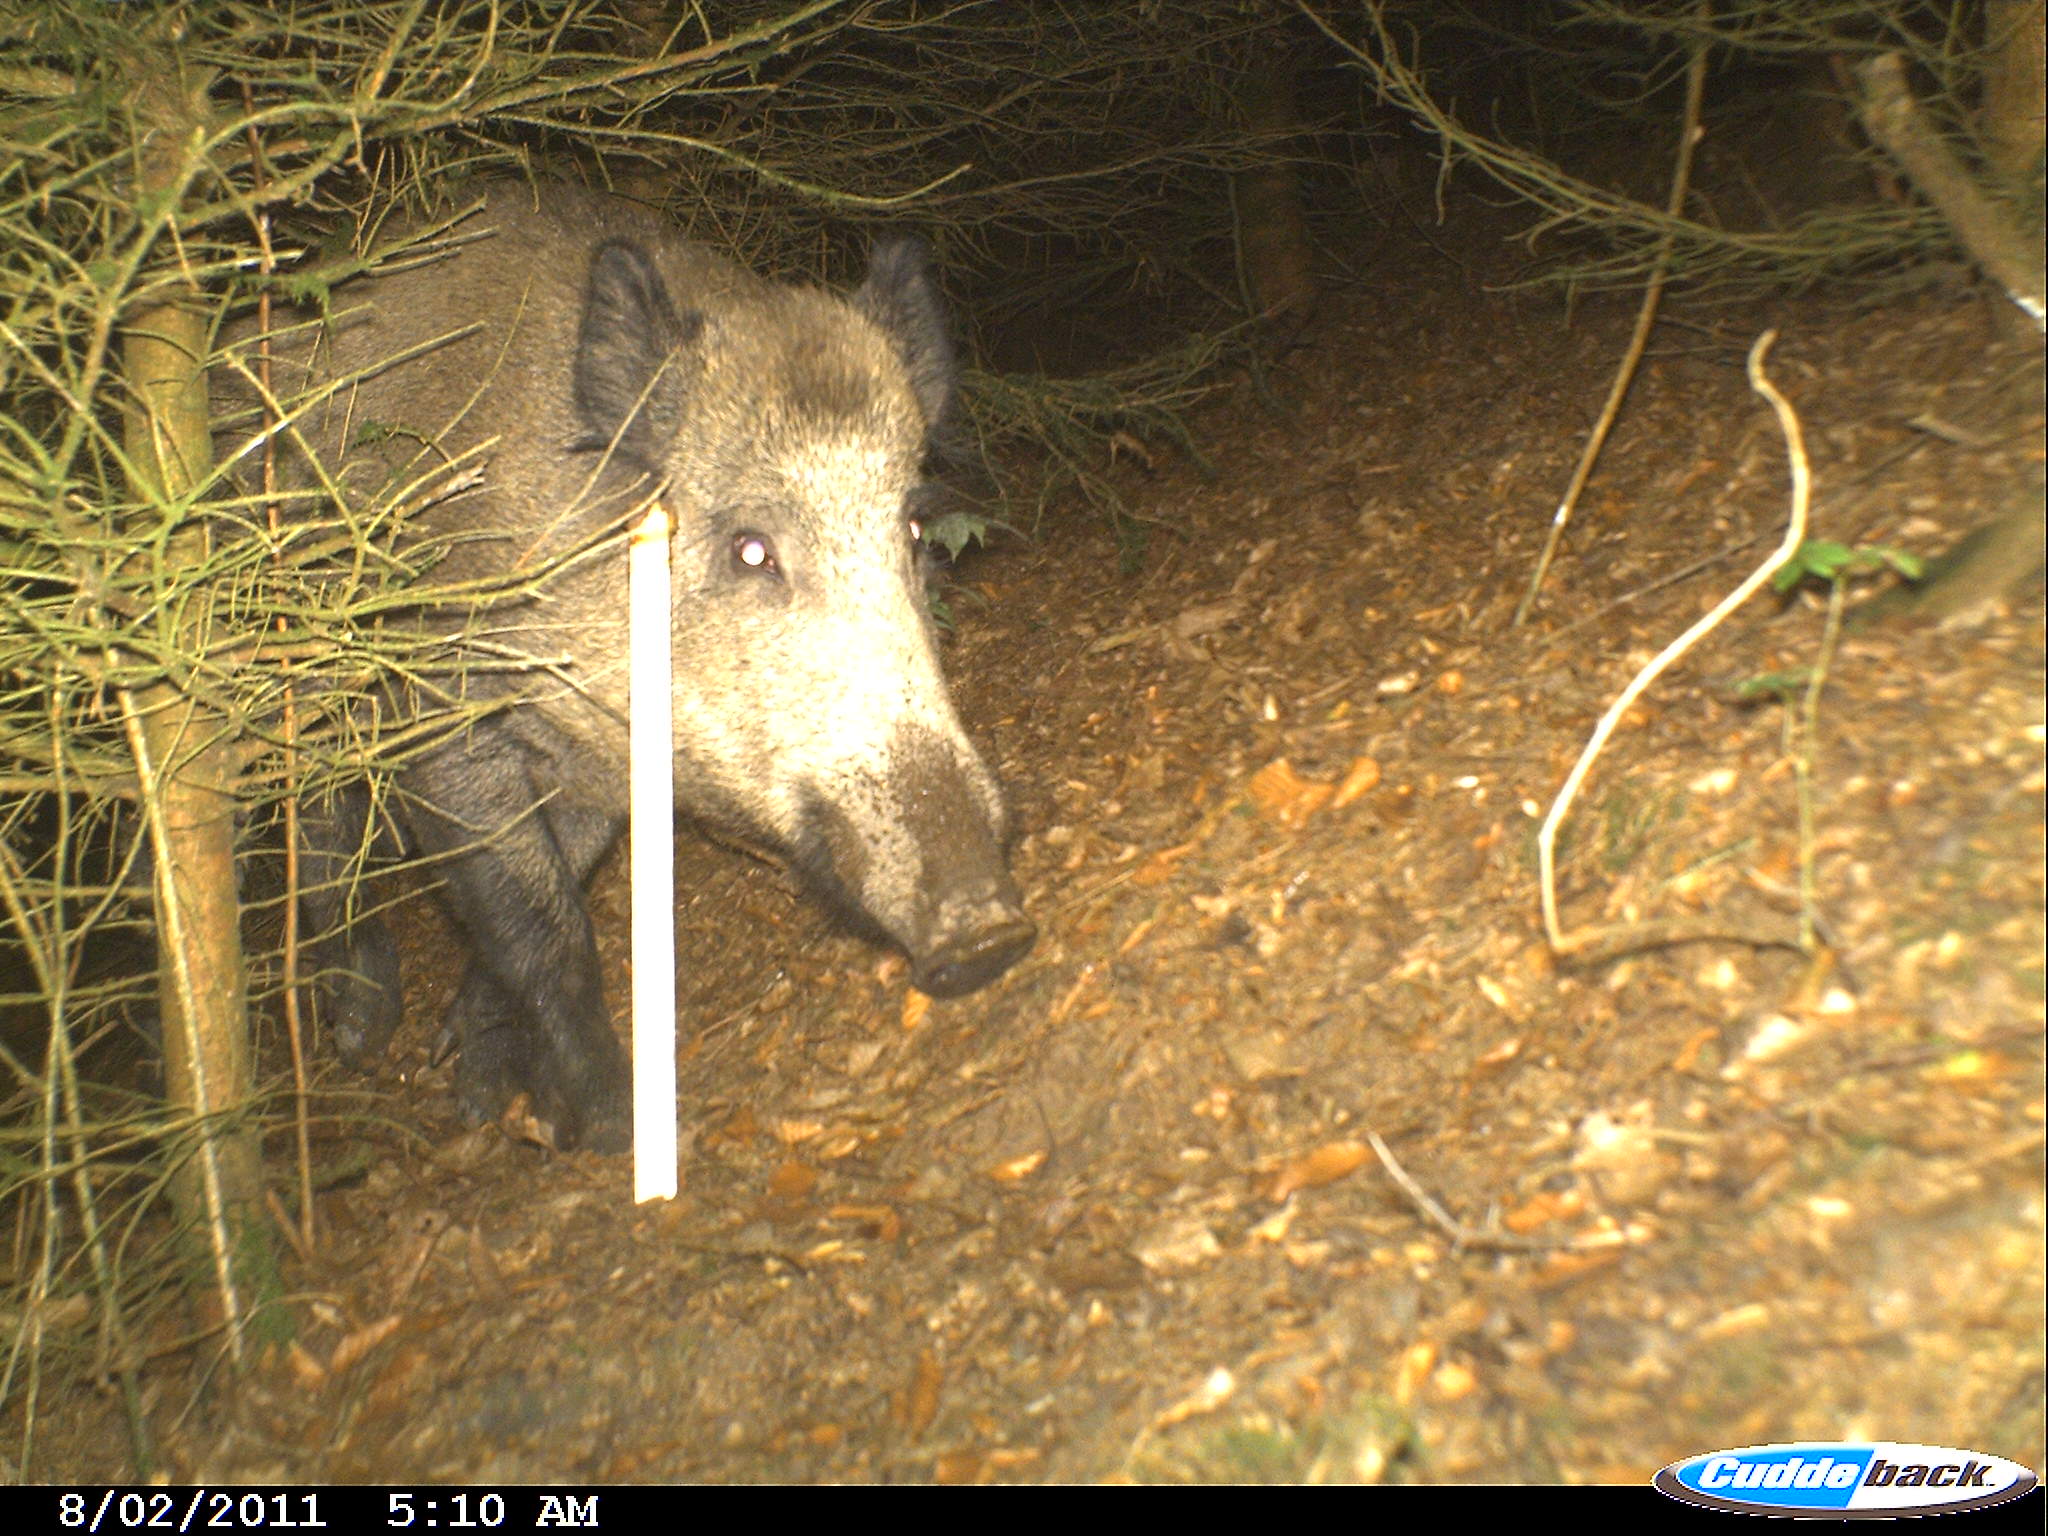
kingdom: Animalia
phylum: Chordata
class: Mammalia
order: Artiodactyla
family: Suidae
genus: Sus
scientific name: Sus scrofa
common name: Wild boar
